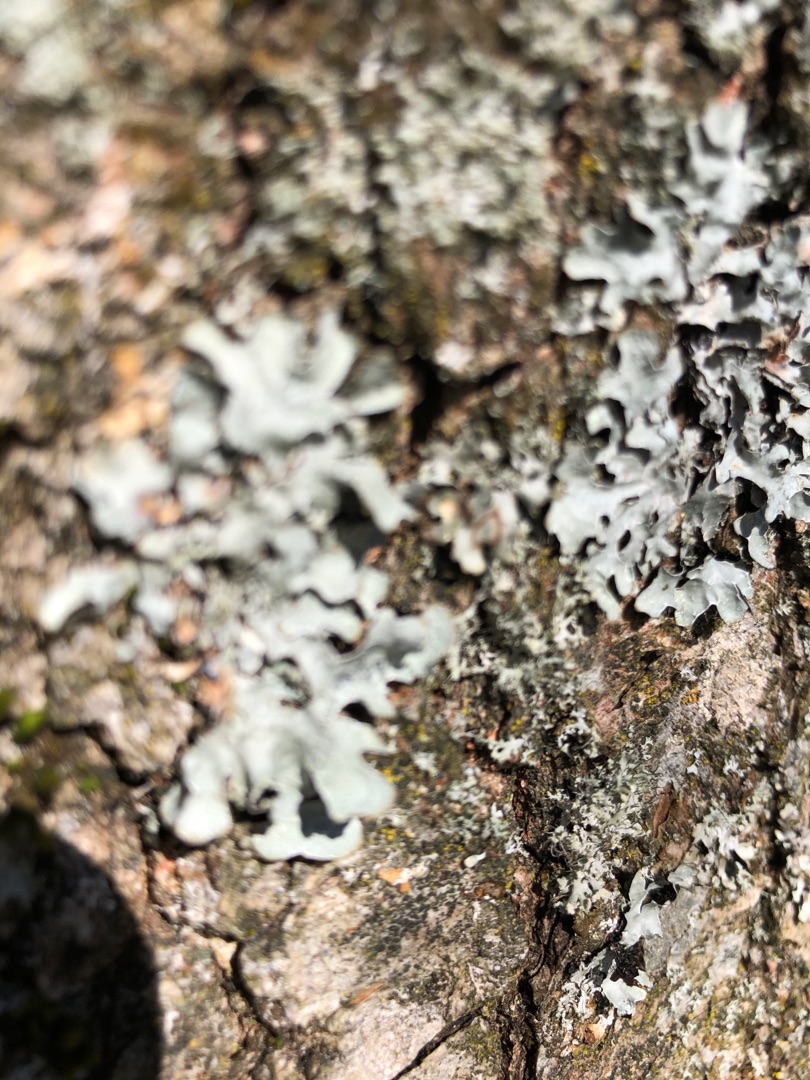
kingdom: Fungi
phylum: Ascomycota
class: Lecanoromycetes
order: Lecanorales
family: Parmeliaceae
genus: Parmelia
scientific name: Parmelia sulcata
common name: Rynket skållav
